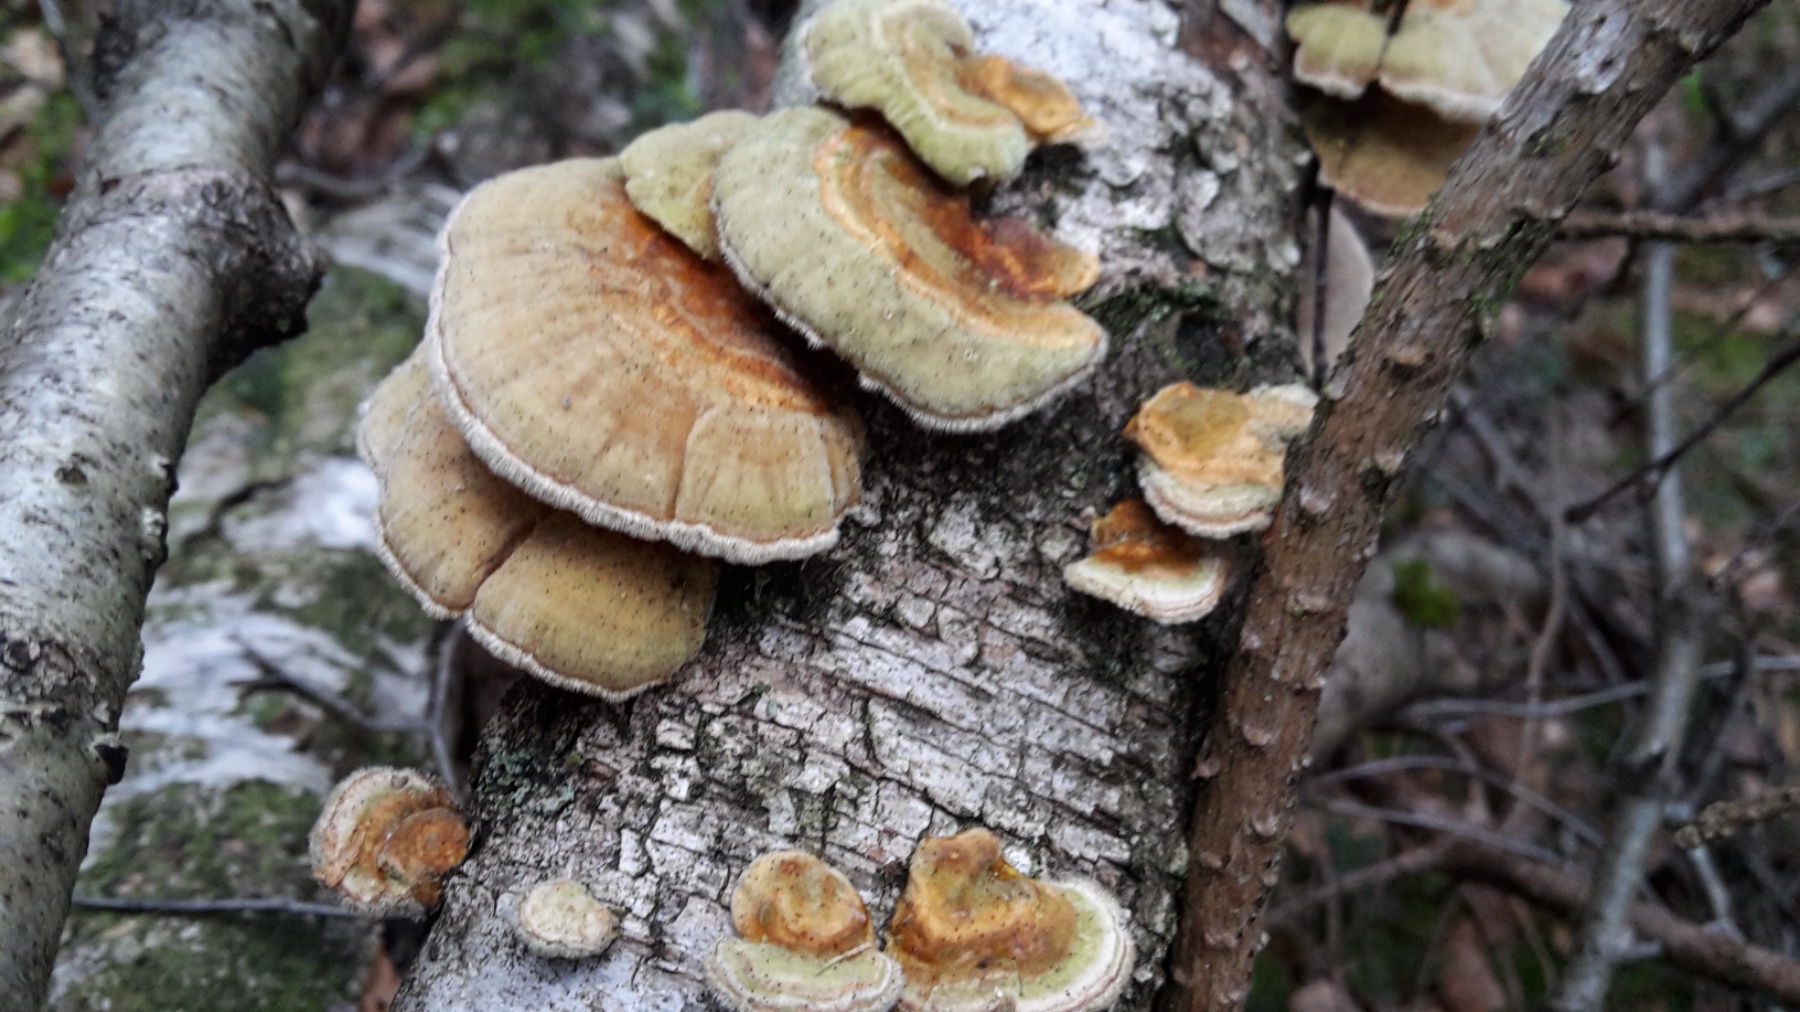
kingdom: Fungi
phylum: Basidiomycota
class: Agaricomycetes
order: Polyporales
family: Polyporaceae
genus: Trametes
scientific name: Trametes ochracea
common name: bæltet læderporesvamp
